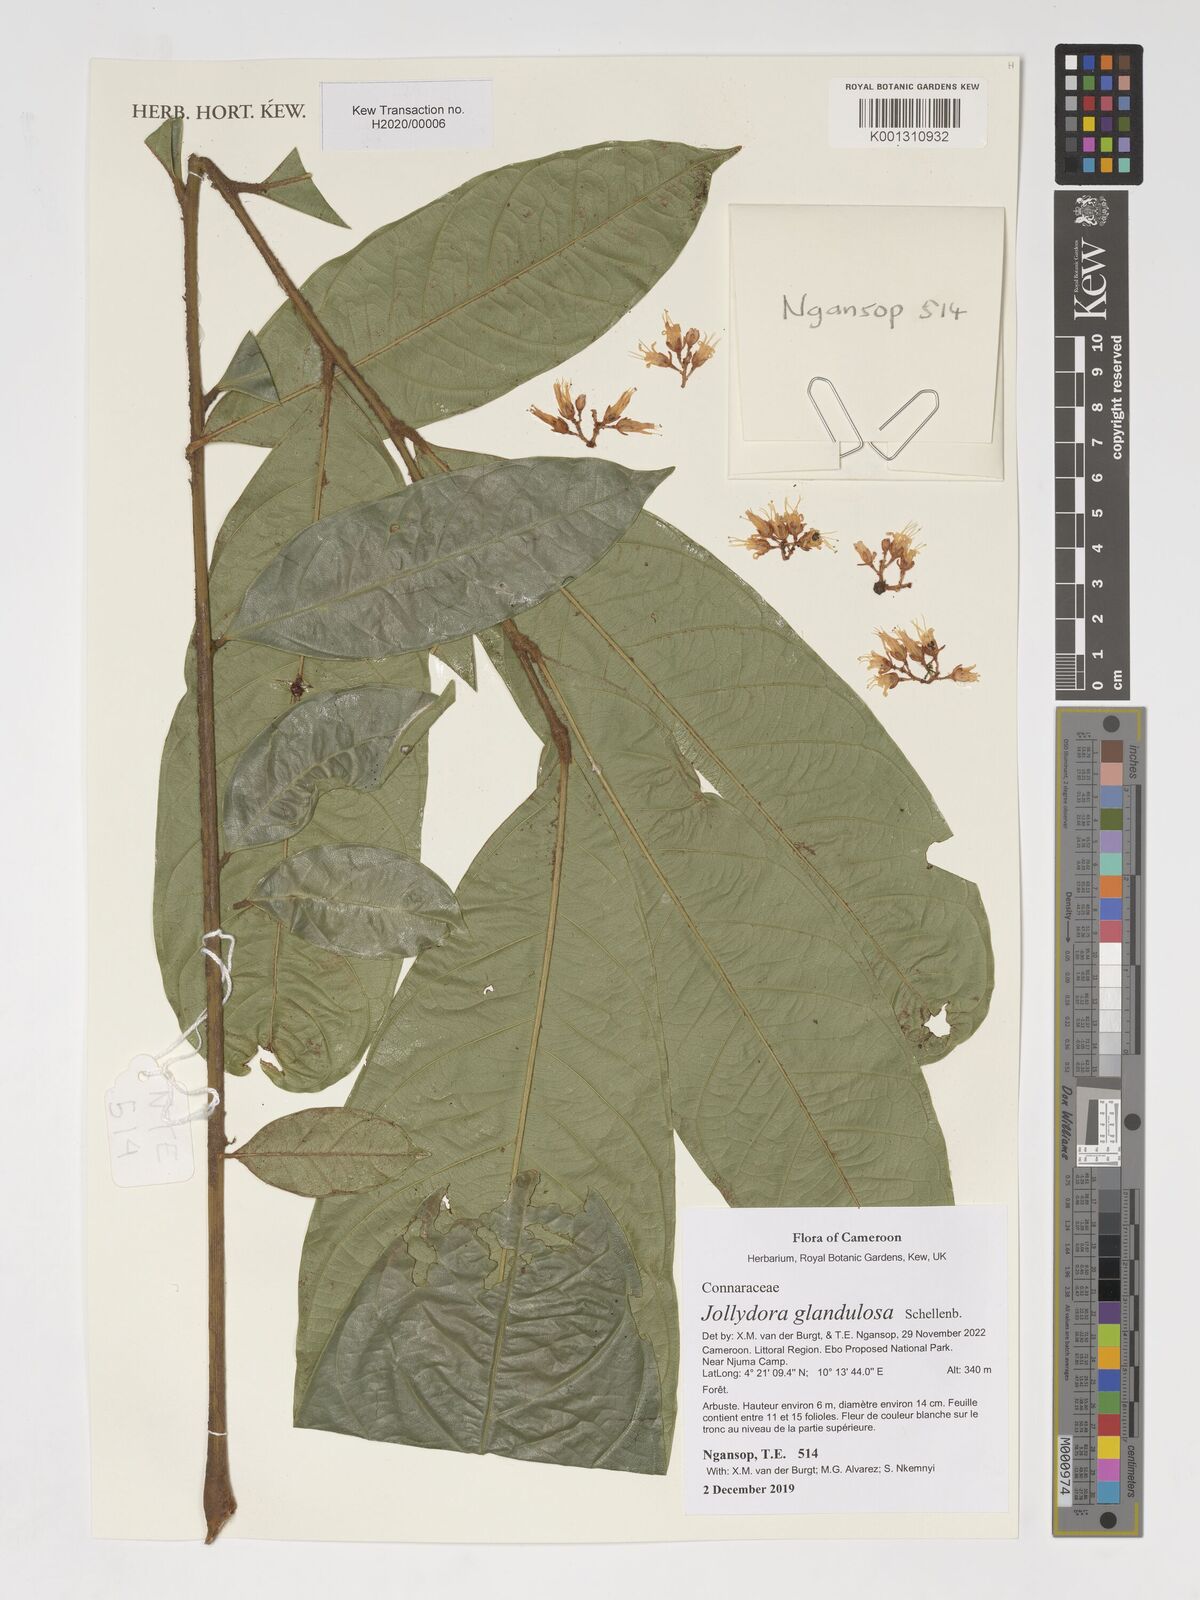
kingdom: Plantae
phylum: Tracheophyta
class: Magnoliopsida
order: Oxalidales
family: Connaraceae
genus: Jollydora
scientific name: Jollydora glandulosa
